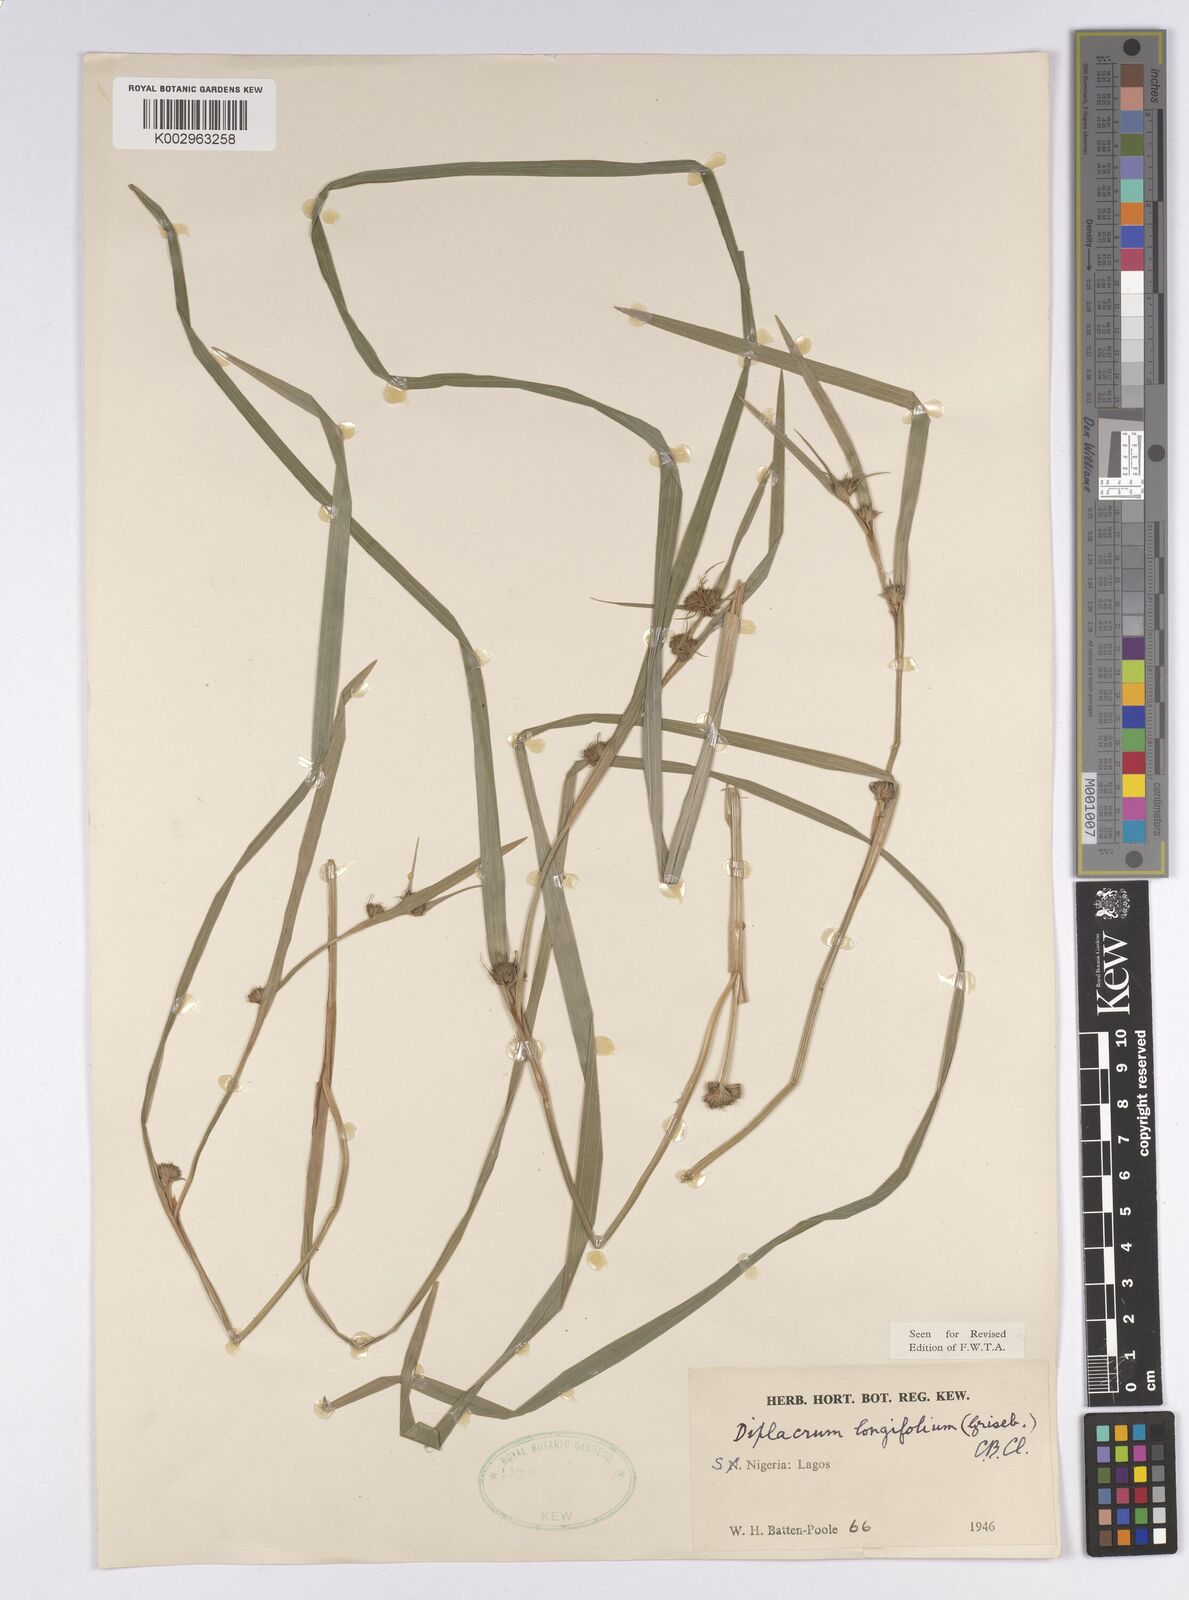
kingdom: Plantae
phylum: Tracheophyta
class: Liliopsida
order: Poales
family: Cyperaceae
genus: Diplacrum
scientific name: Diplacrum capitatum
